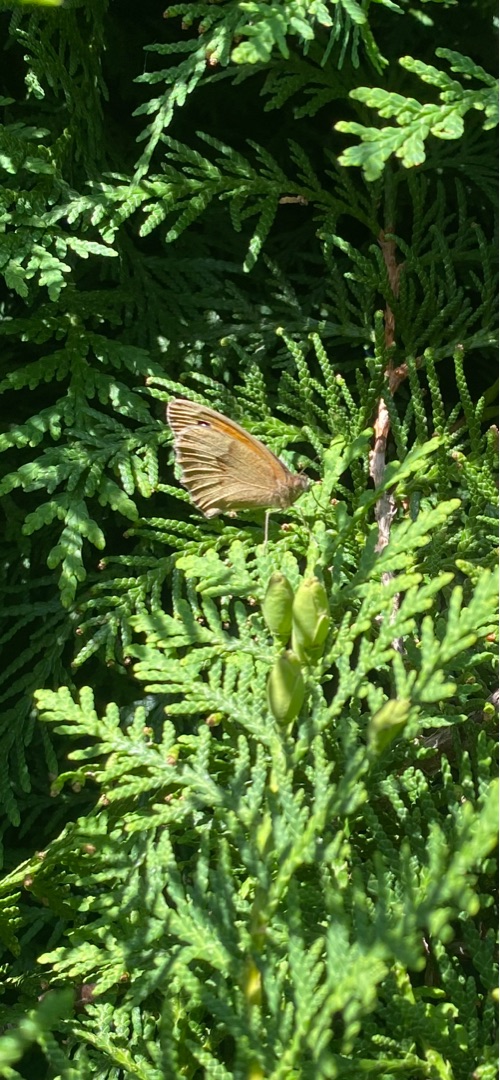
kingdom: Animalia
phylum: Arthropoda
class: Insecta
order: Lepidoptera
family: Nymphalidae
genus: Maniola
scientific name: Maniola jurtina
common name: Græsrandøje
